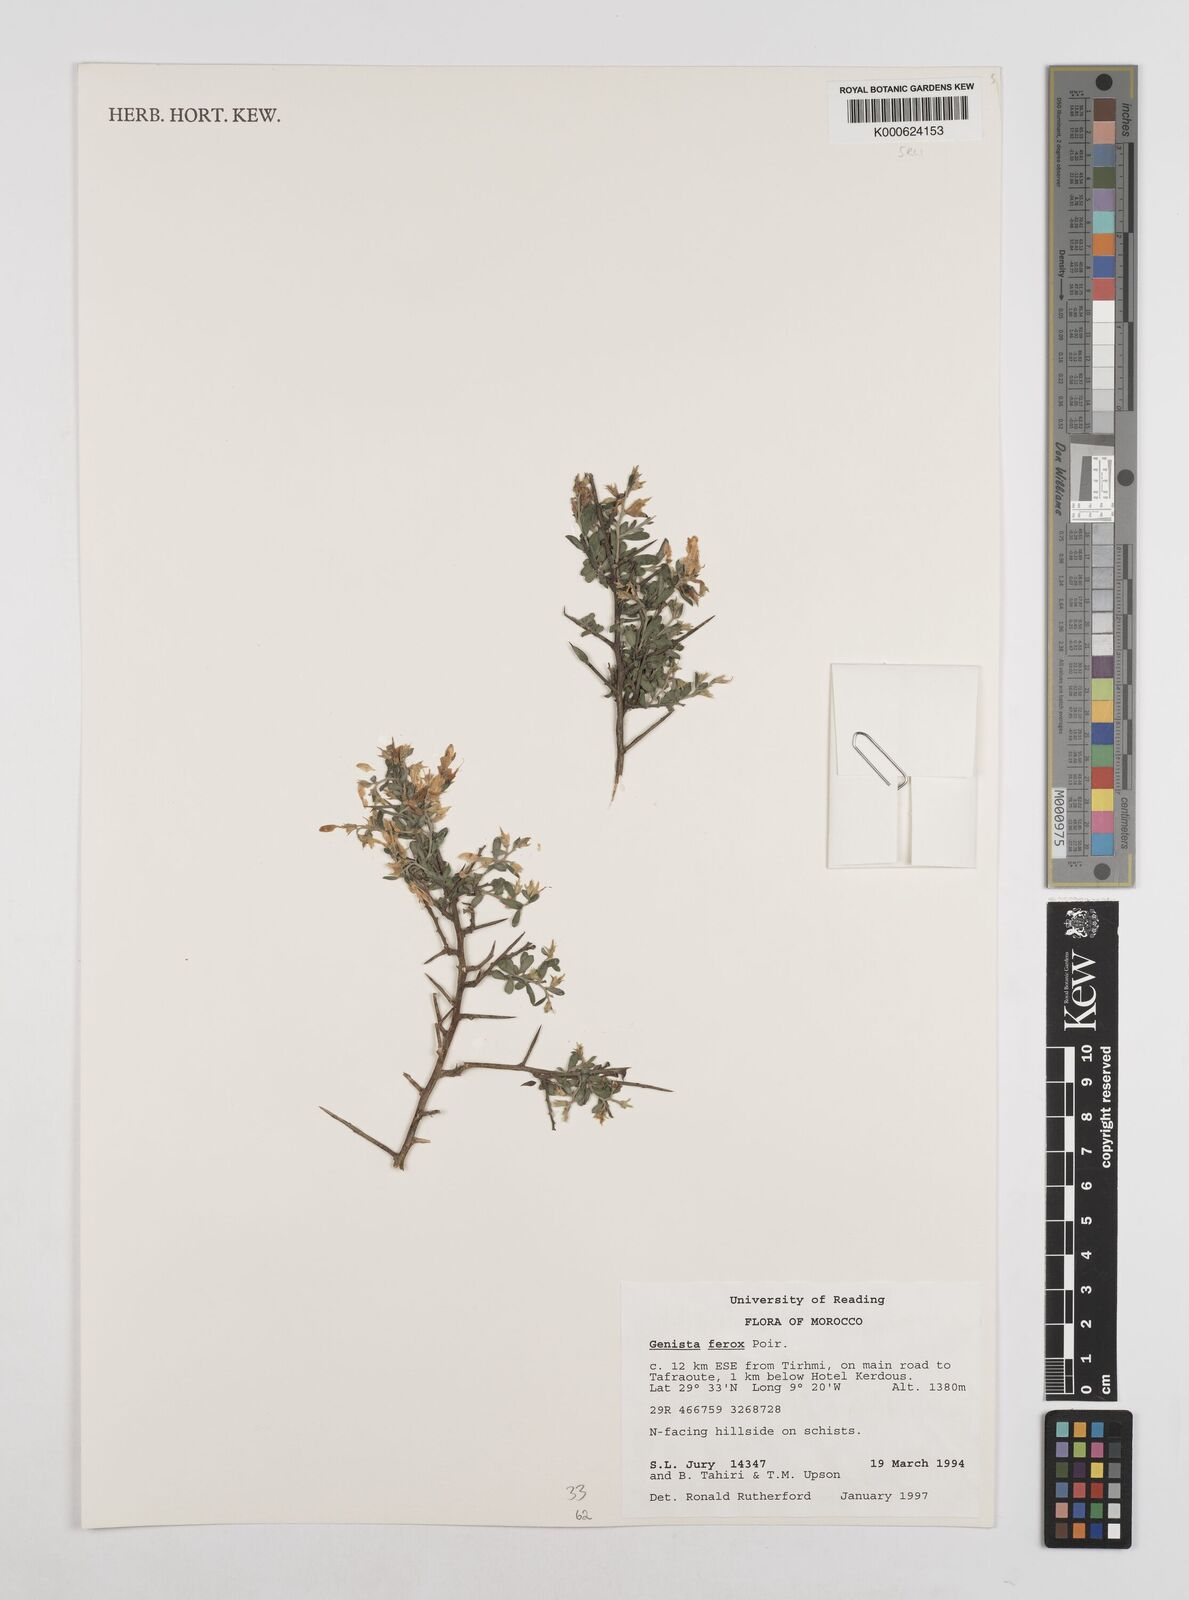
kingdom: Plantae
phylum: Tracheophyta
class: Magnoliopsida
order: Fabales
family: Fabaceae
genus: Genista
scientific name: Genista ferox
